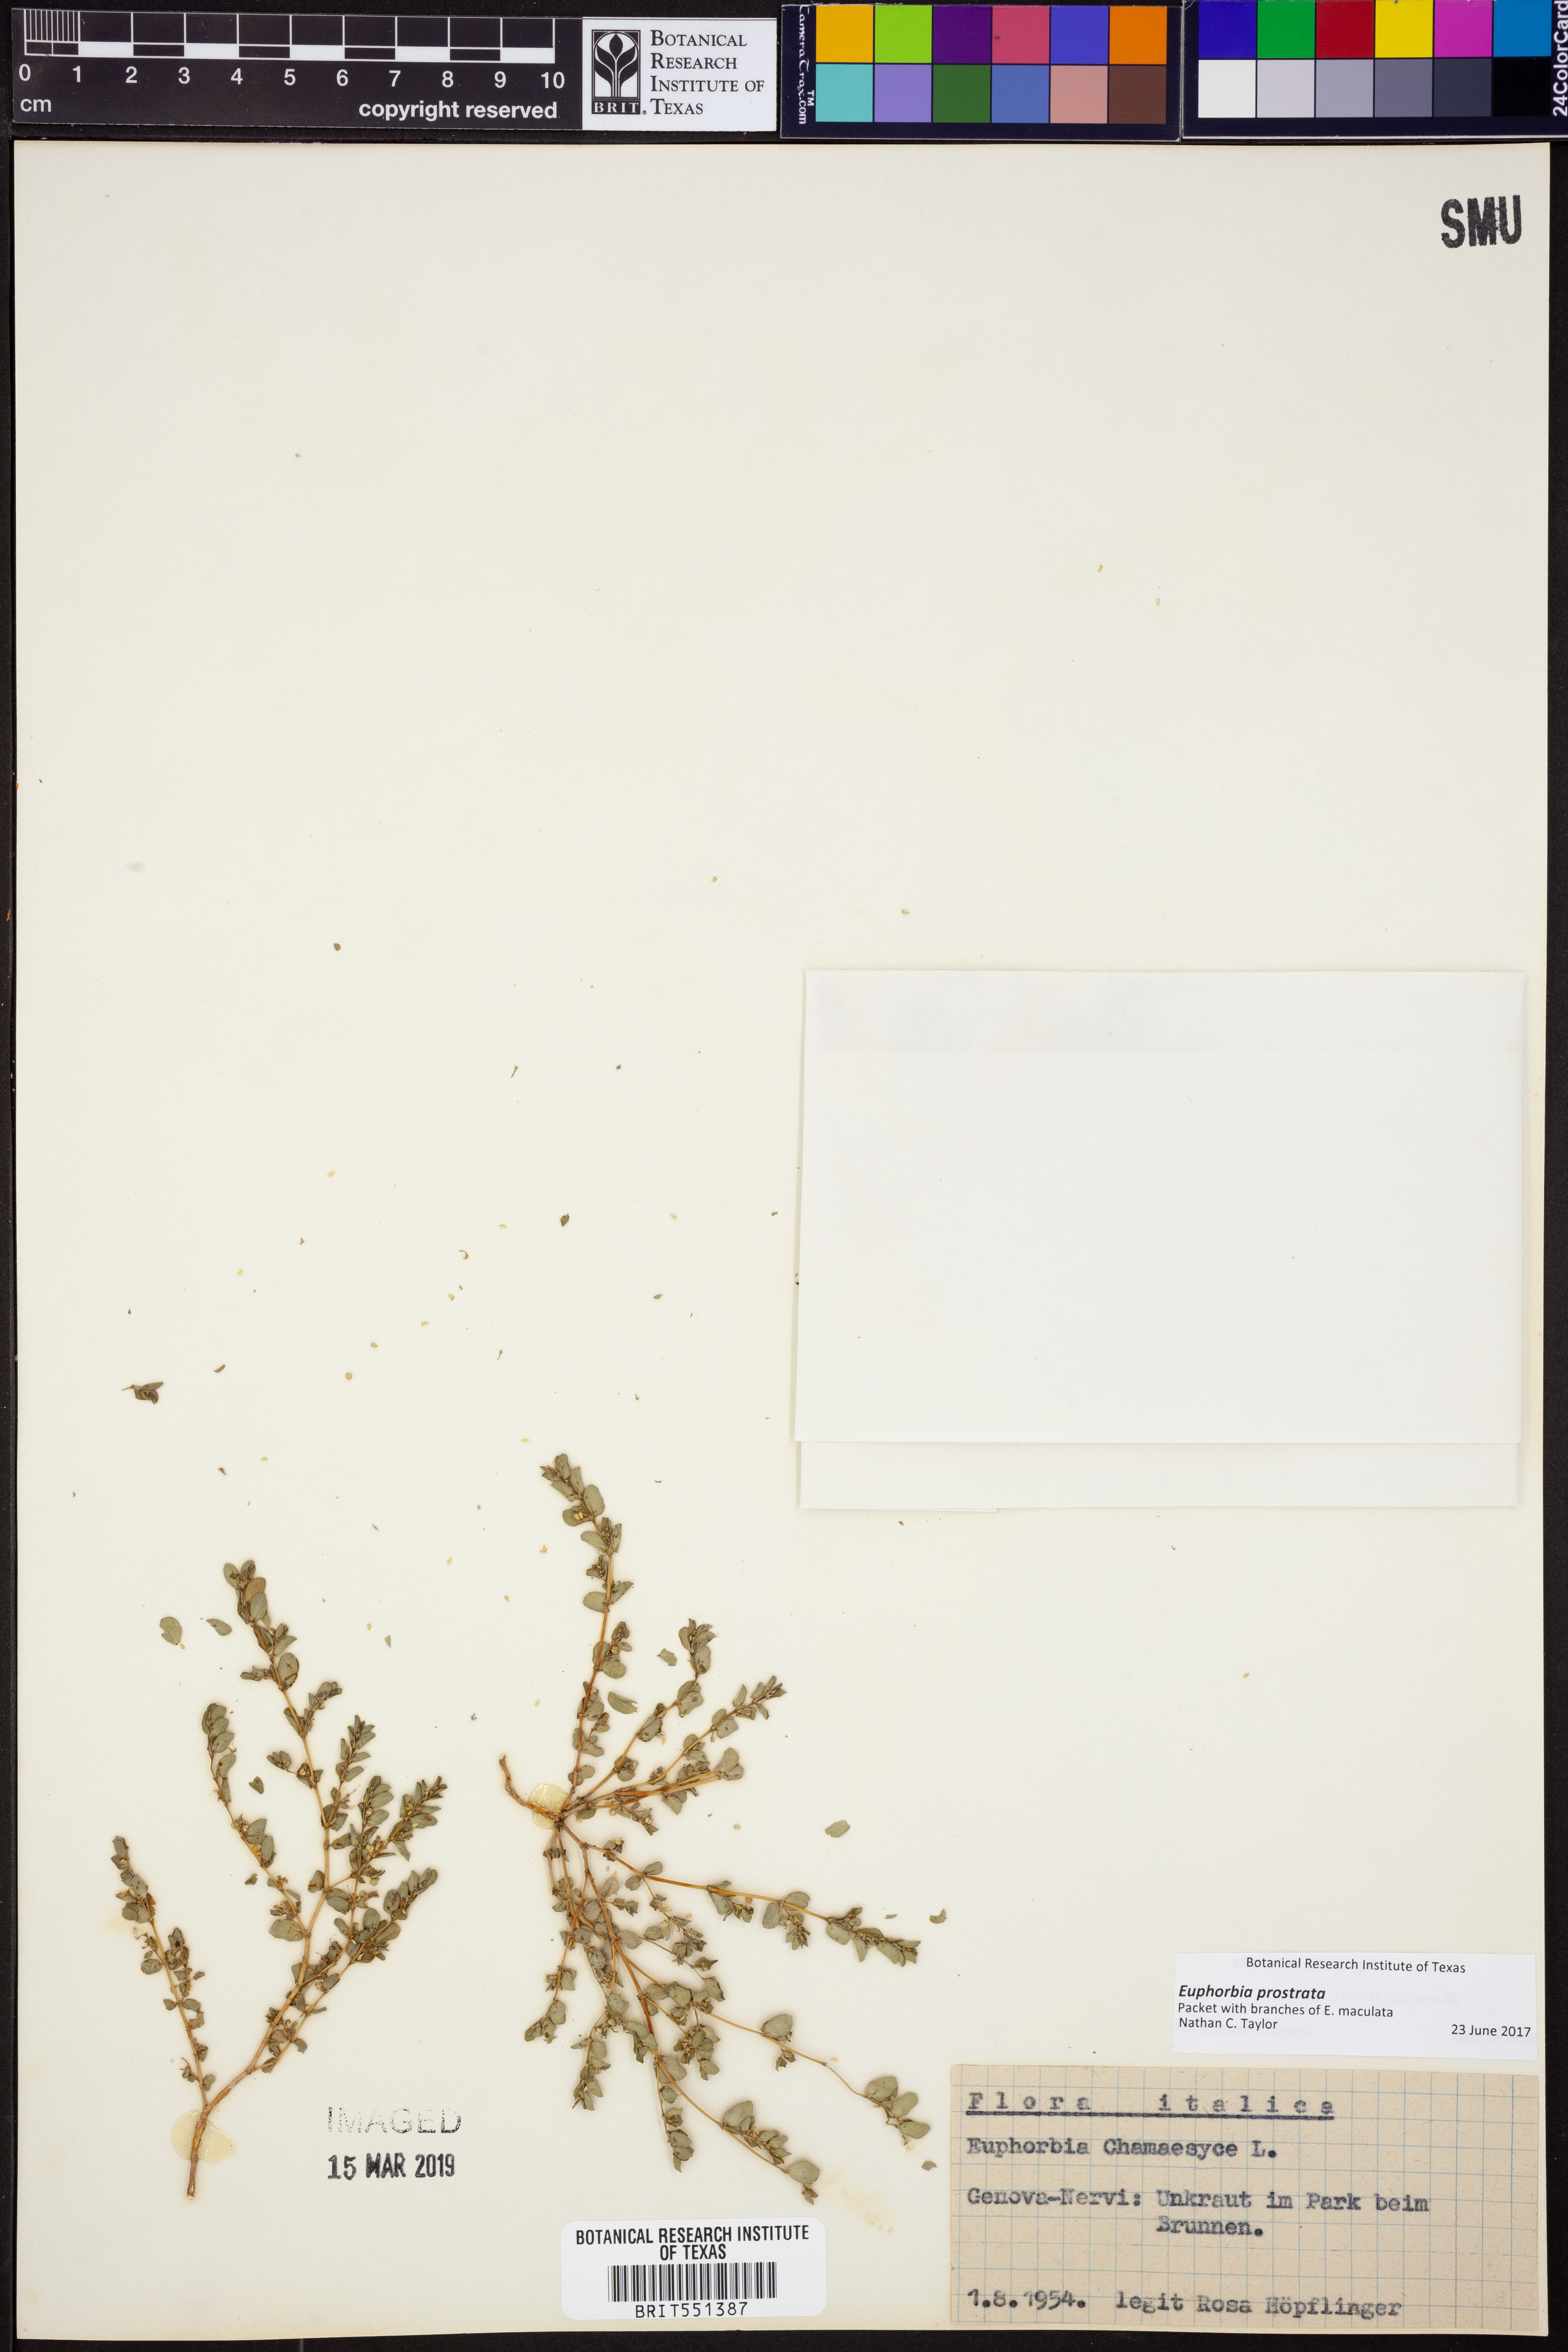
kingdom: Plantae
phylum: Tracheophyta
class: Magnoliopsida
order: Malpighiales
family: Euphorbiaceae
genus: Euphorbia
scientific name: Euphorbia prostrata
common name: Prostrate sandmat
